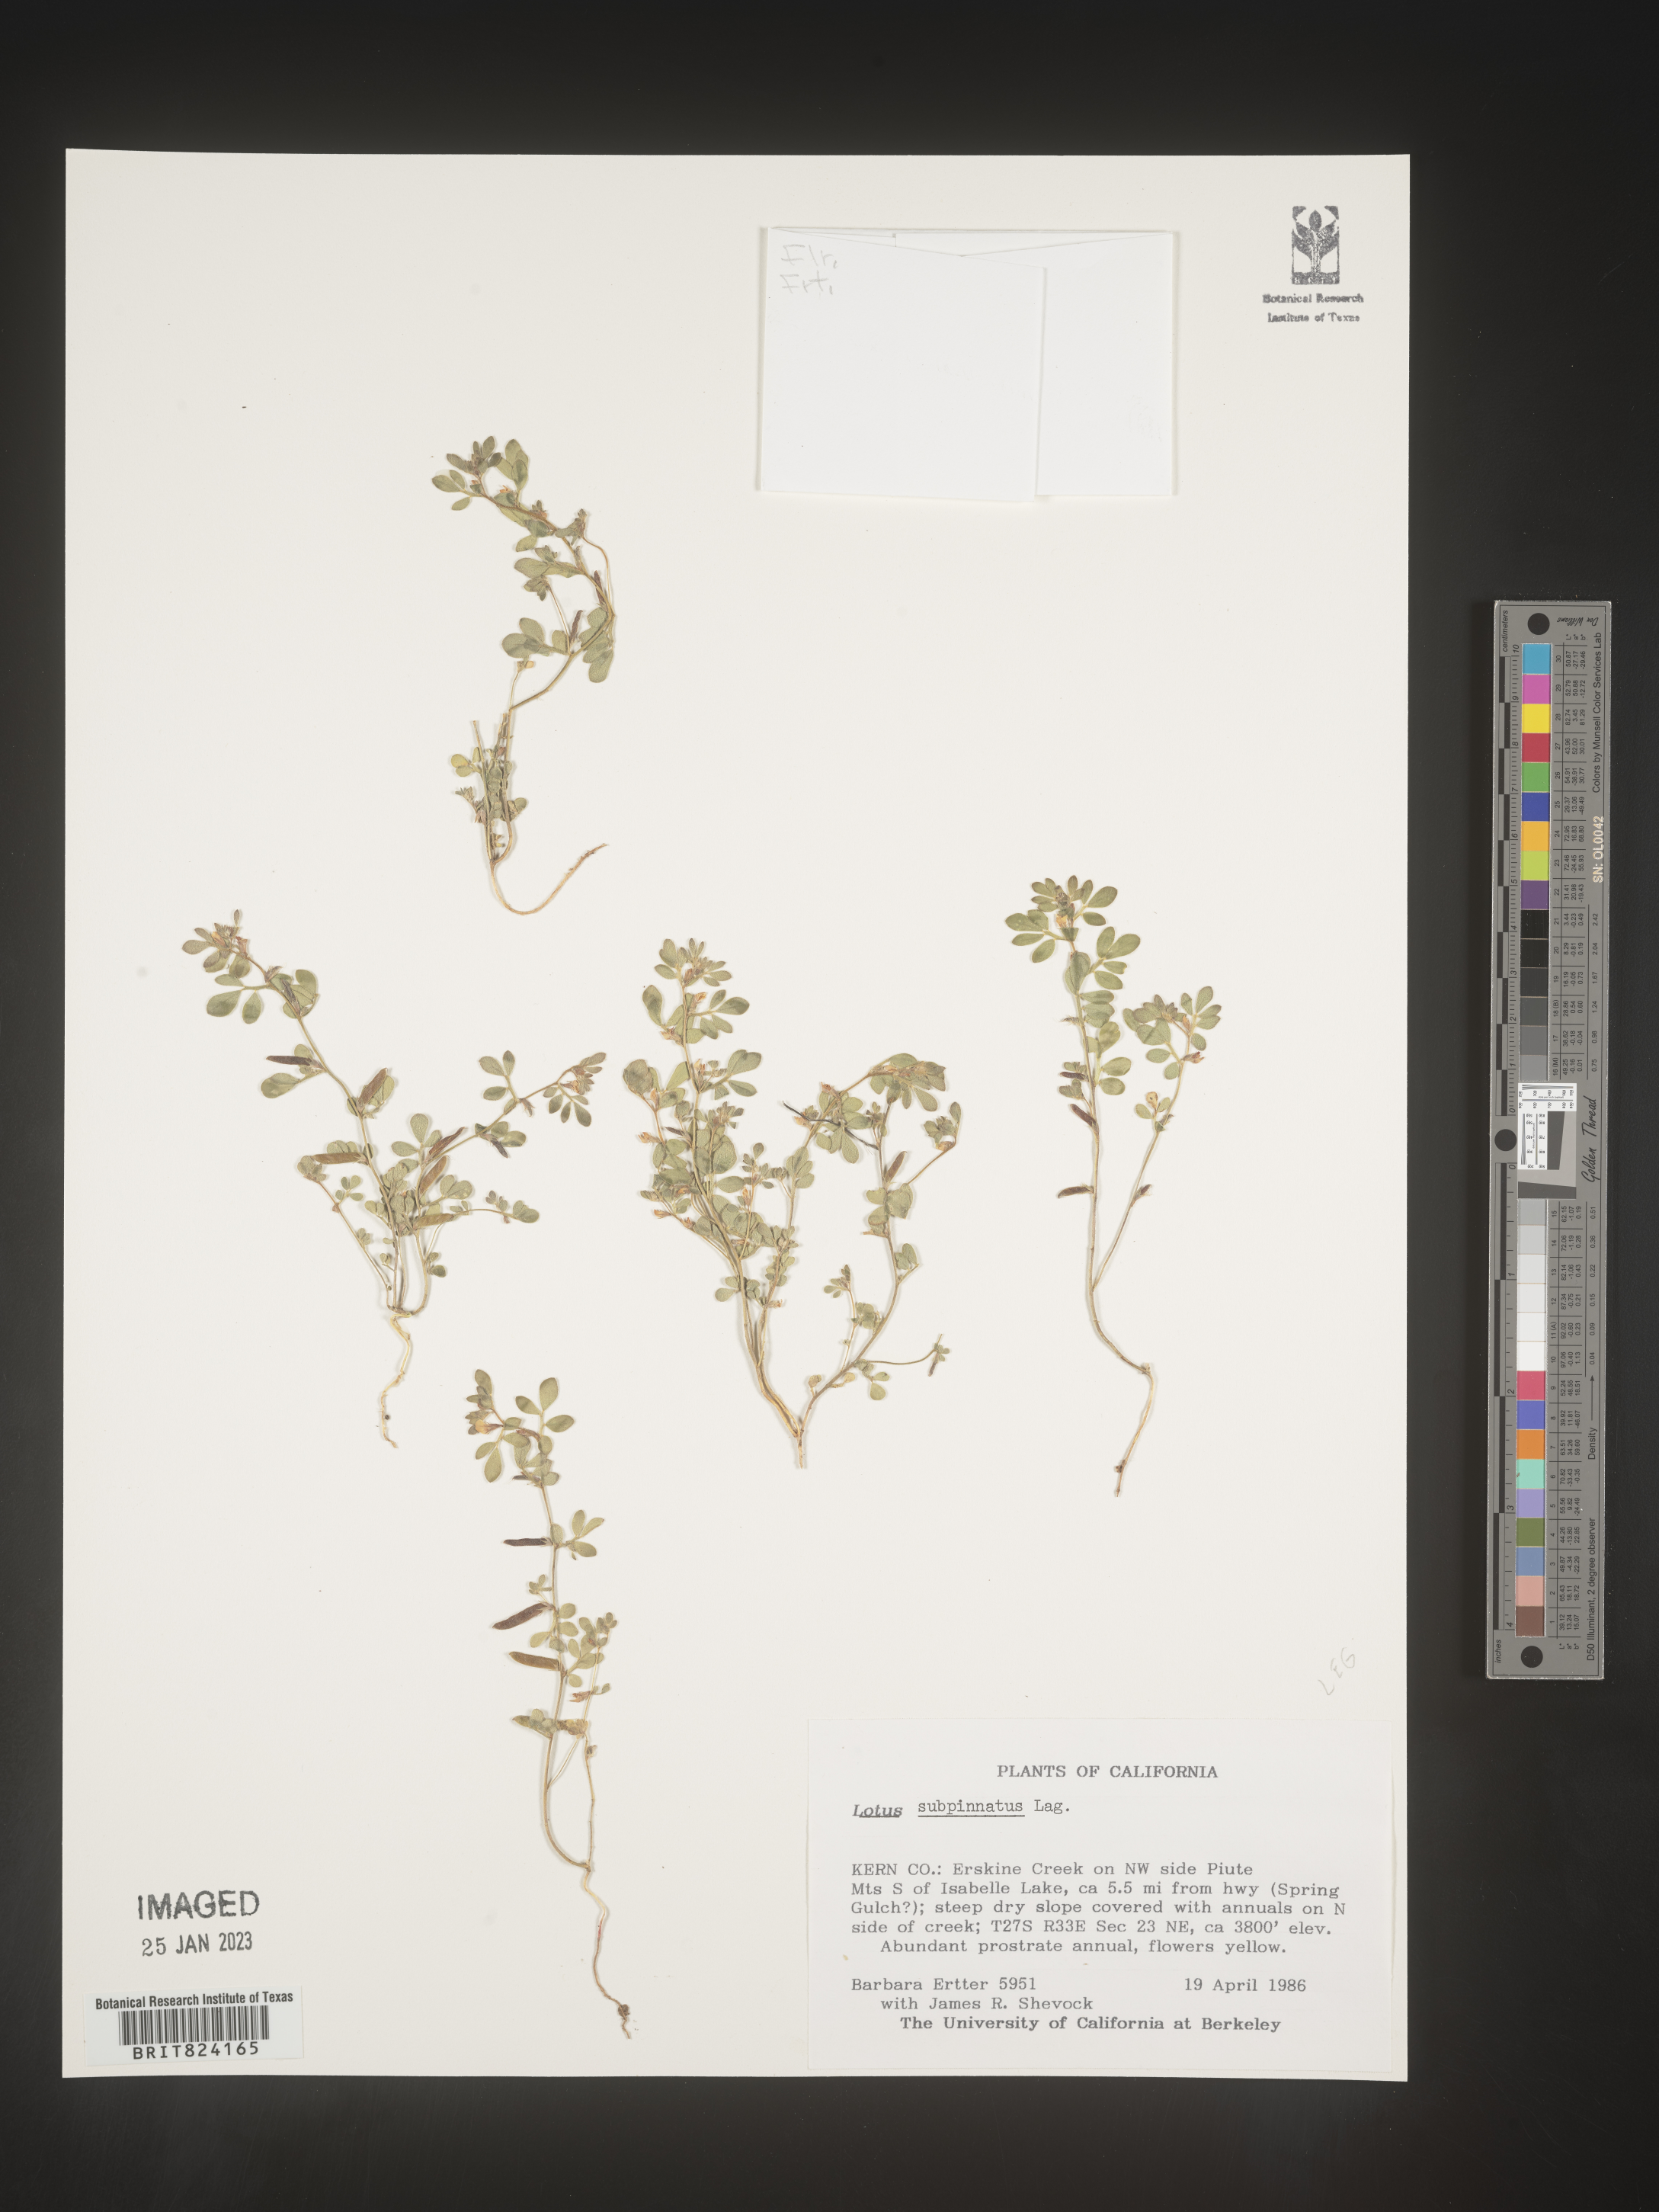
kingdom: Plantae
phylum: Tracheophyta
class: Magnoliopsida
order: Fabales
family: Fabaceae
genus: Lotus
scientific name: Lotus
